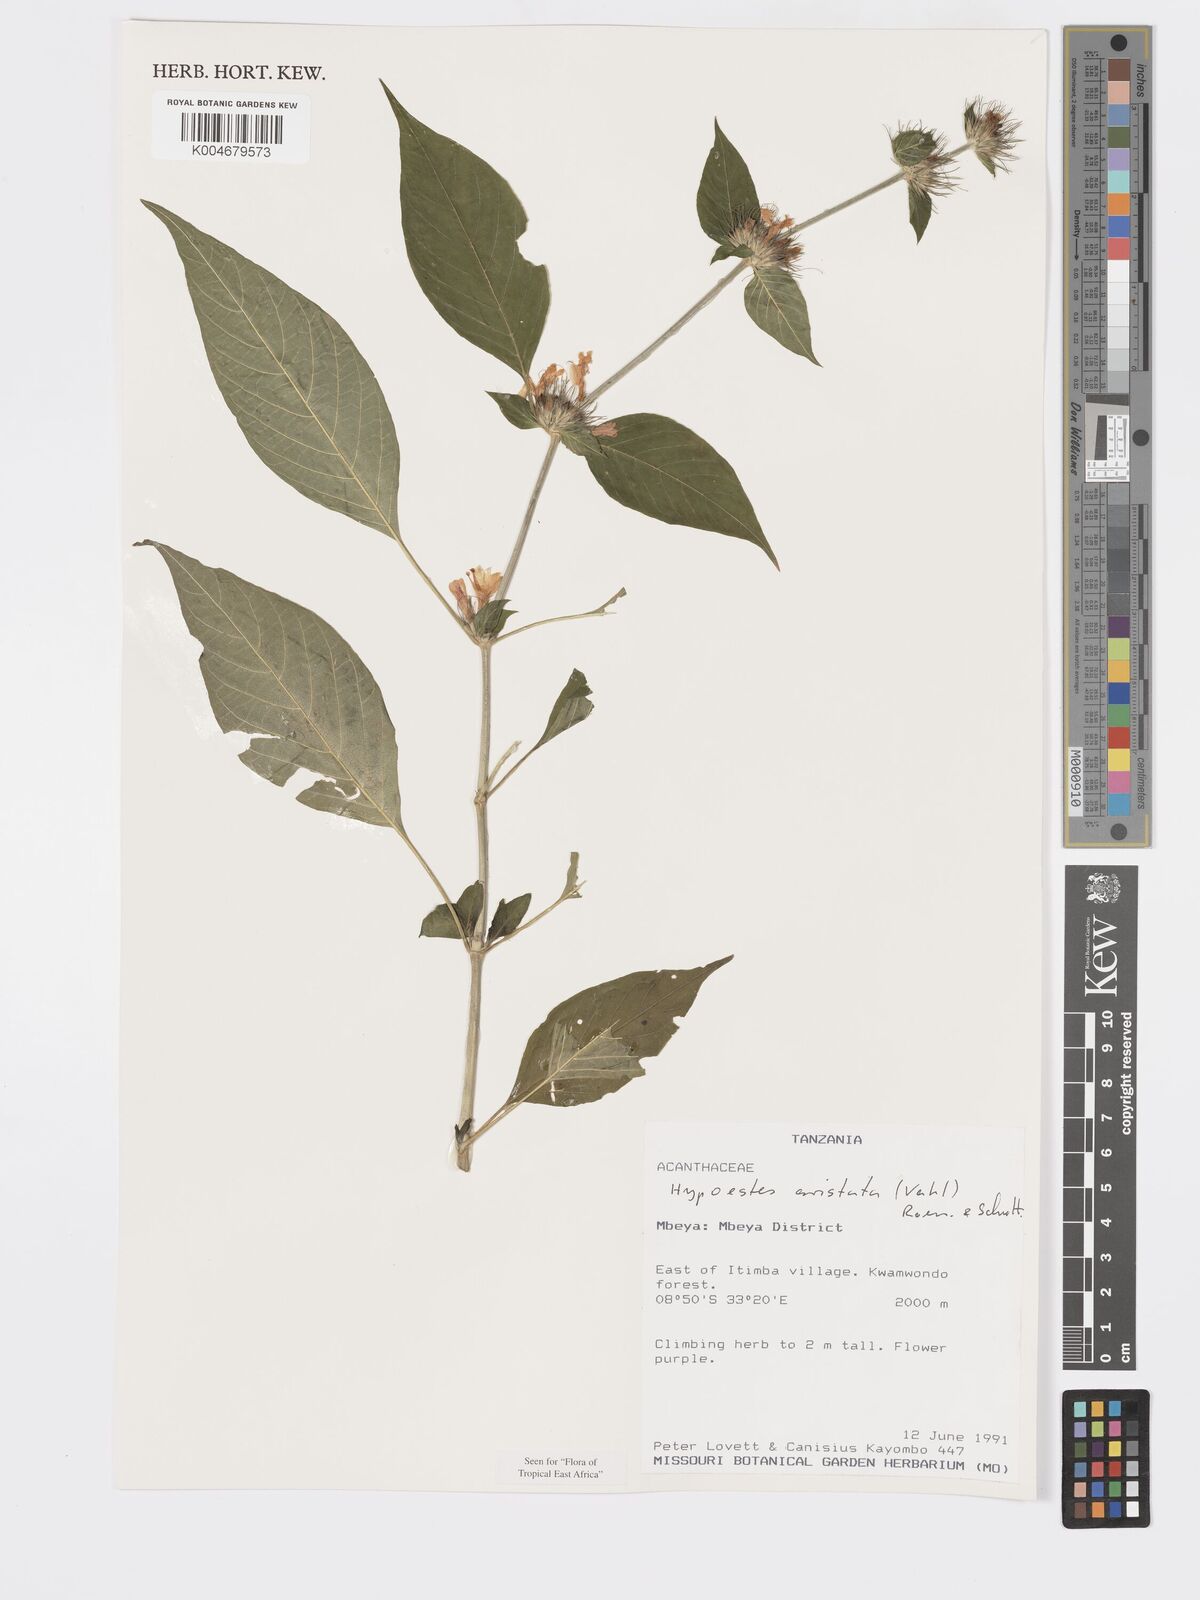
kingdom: Plantae
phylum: Tracheophyta
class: Magnoliopsida
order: Lamiales
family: Acanthaceae
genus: Hypoestes
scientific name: Hypoestes aristata
